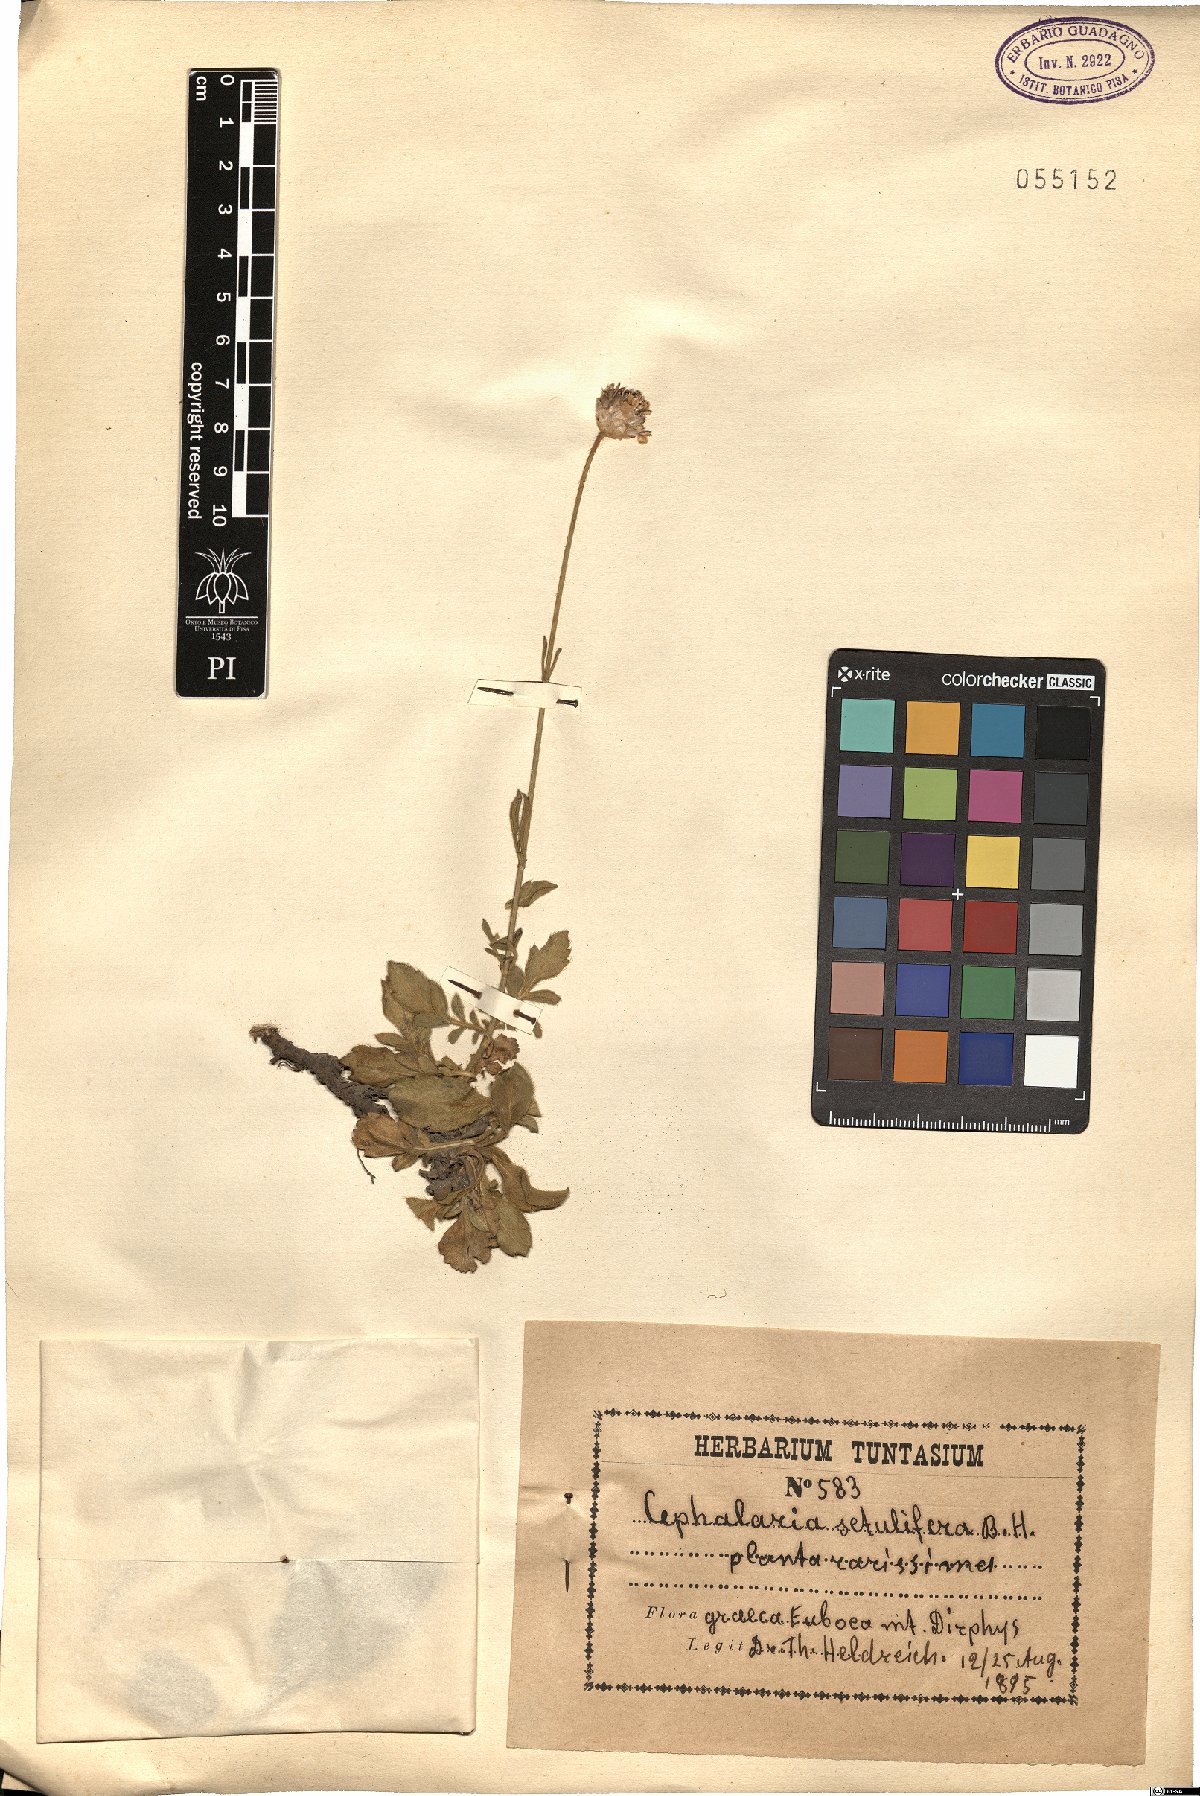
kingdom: Plantae
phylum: Tracheophyta
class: Magnoliopsida
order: Dipsacales
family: Caprifoliaceae
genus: Cephalaria
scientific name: Cephalaria flava
